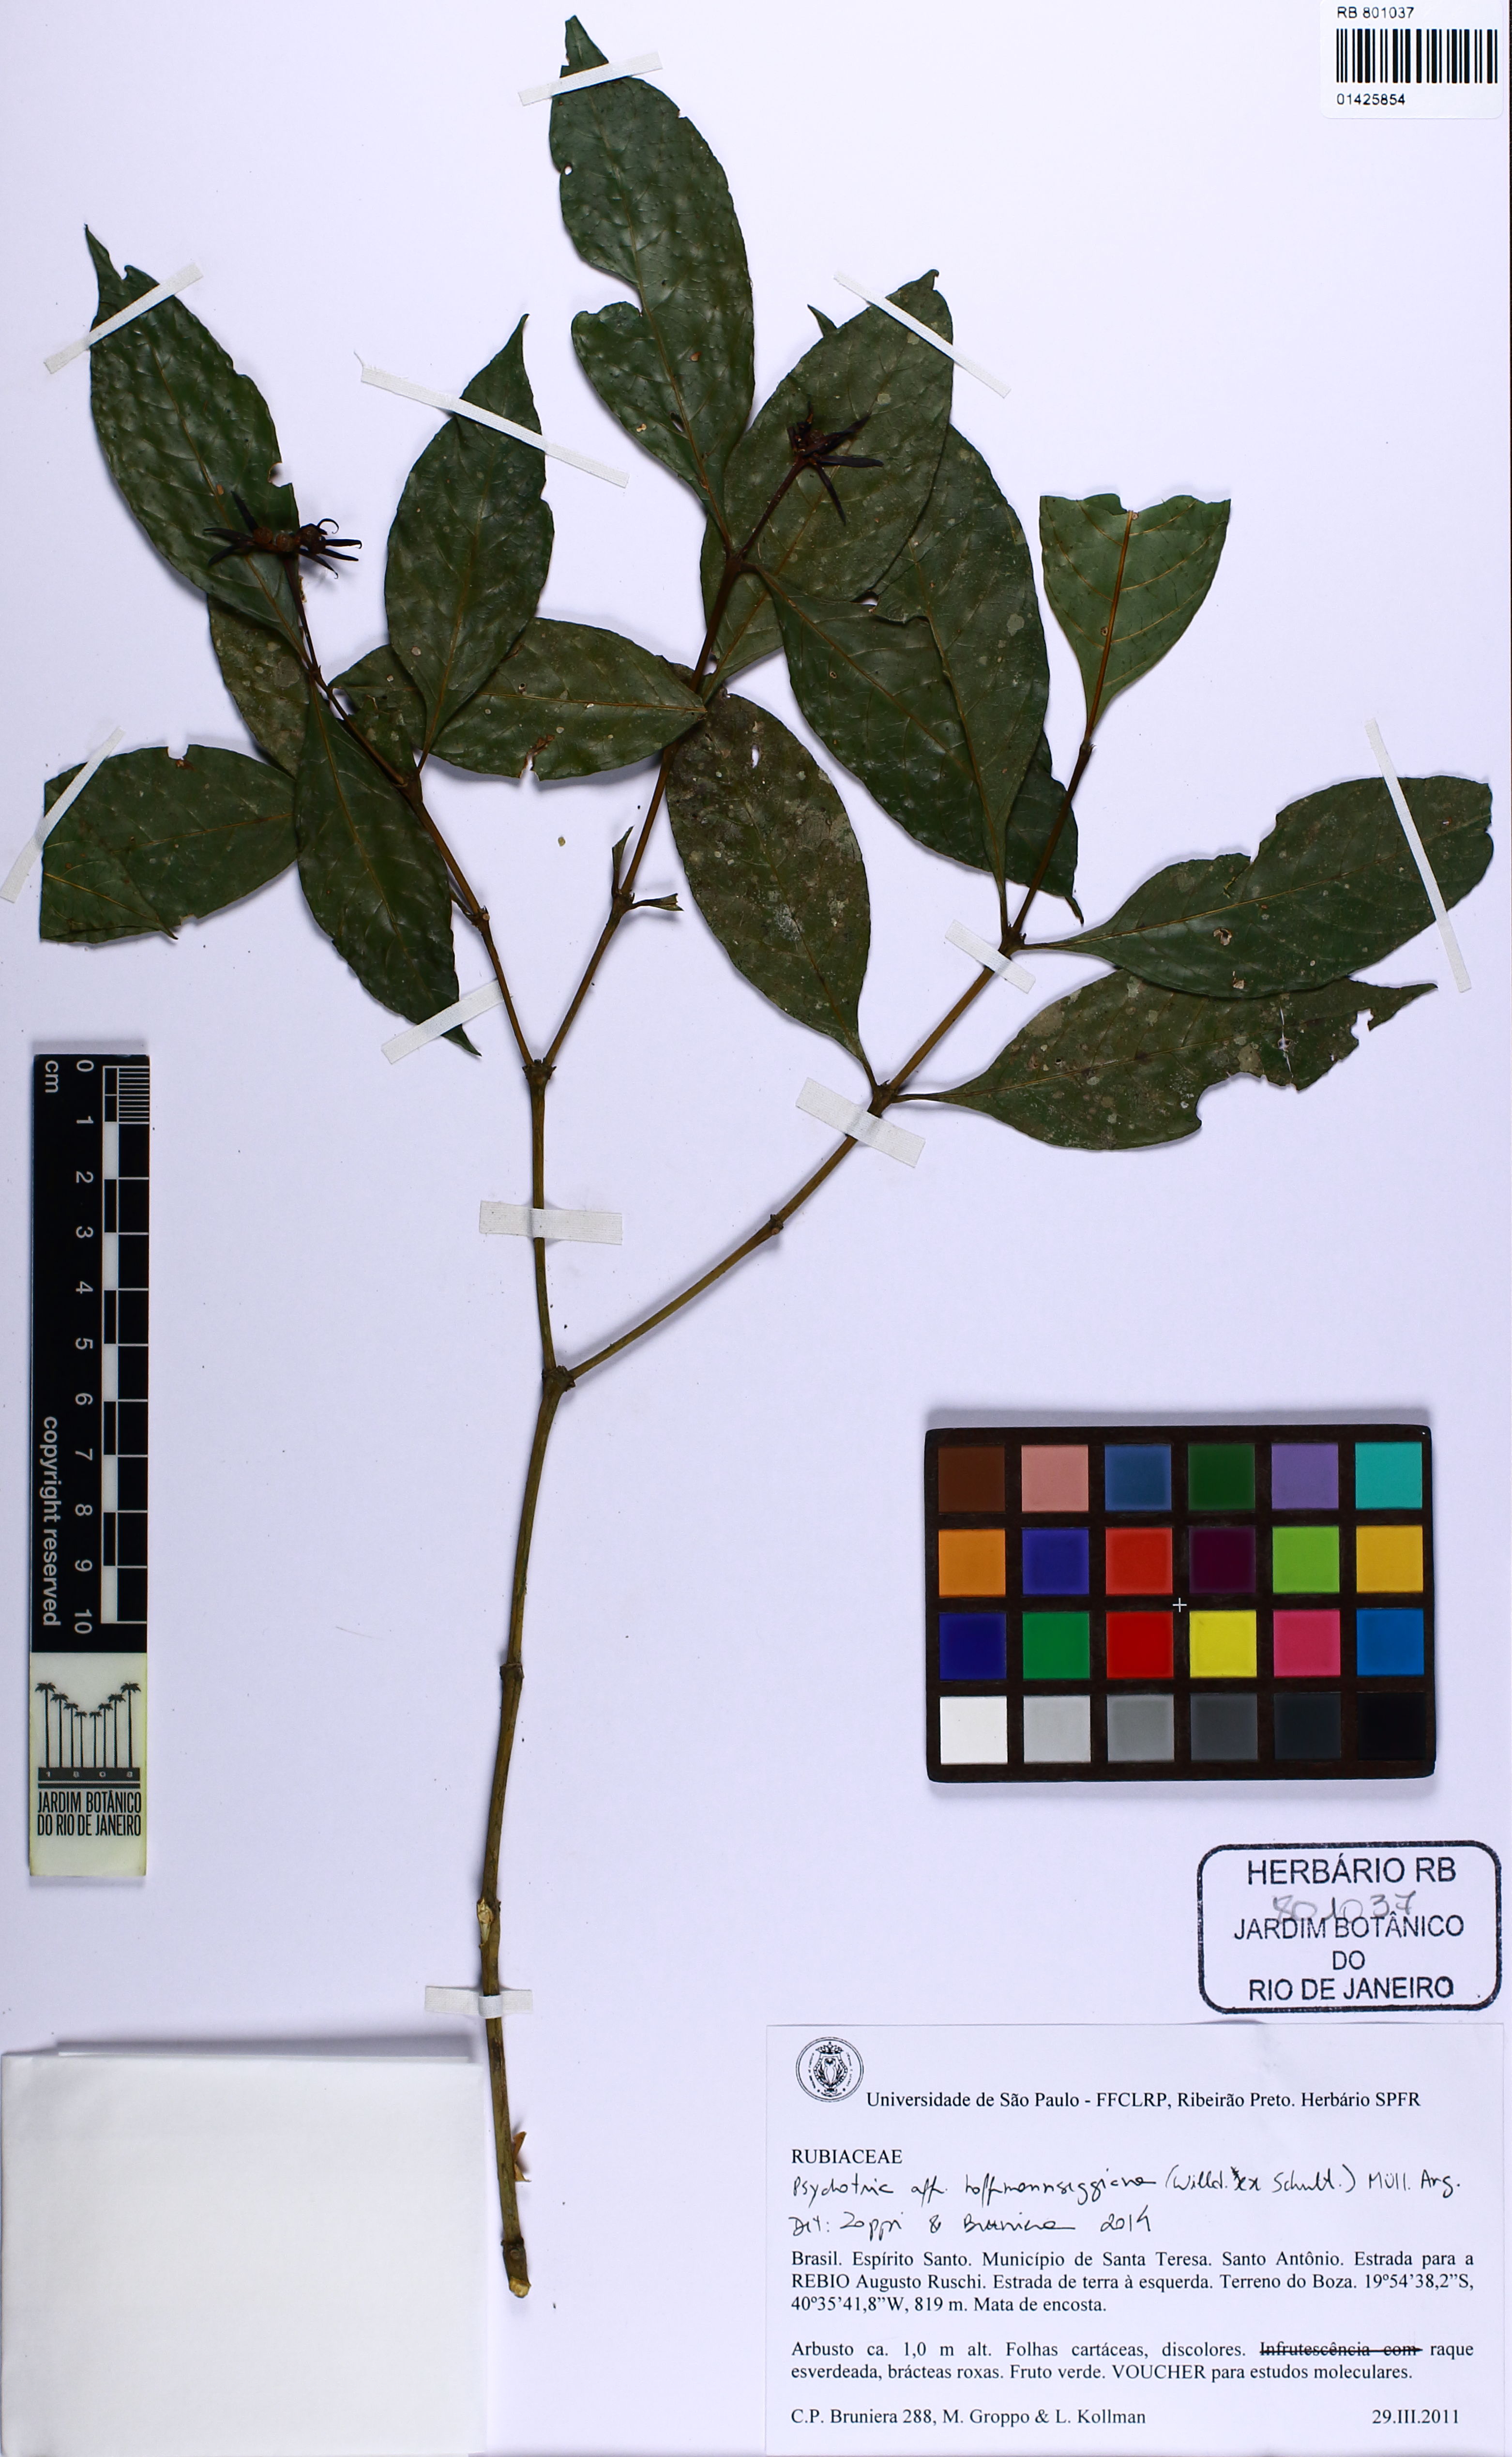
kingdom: Plantae
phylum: Tracheophyta
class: Magnoliopsida
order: Gentianales
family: Rubiaceae
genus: Palicourea
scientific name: Palicourea hoffmannseggiana
